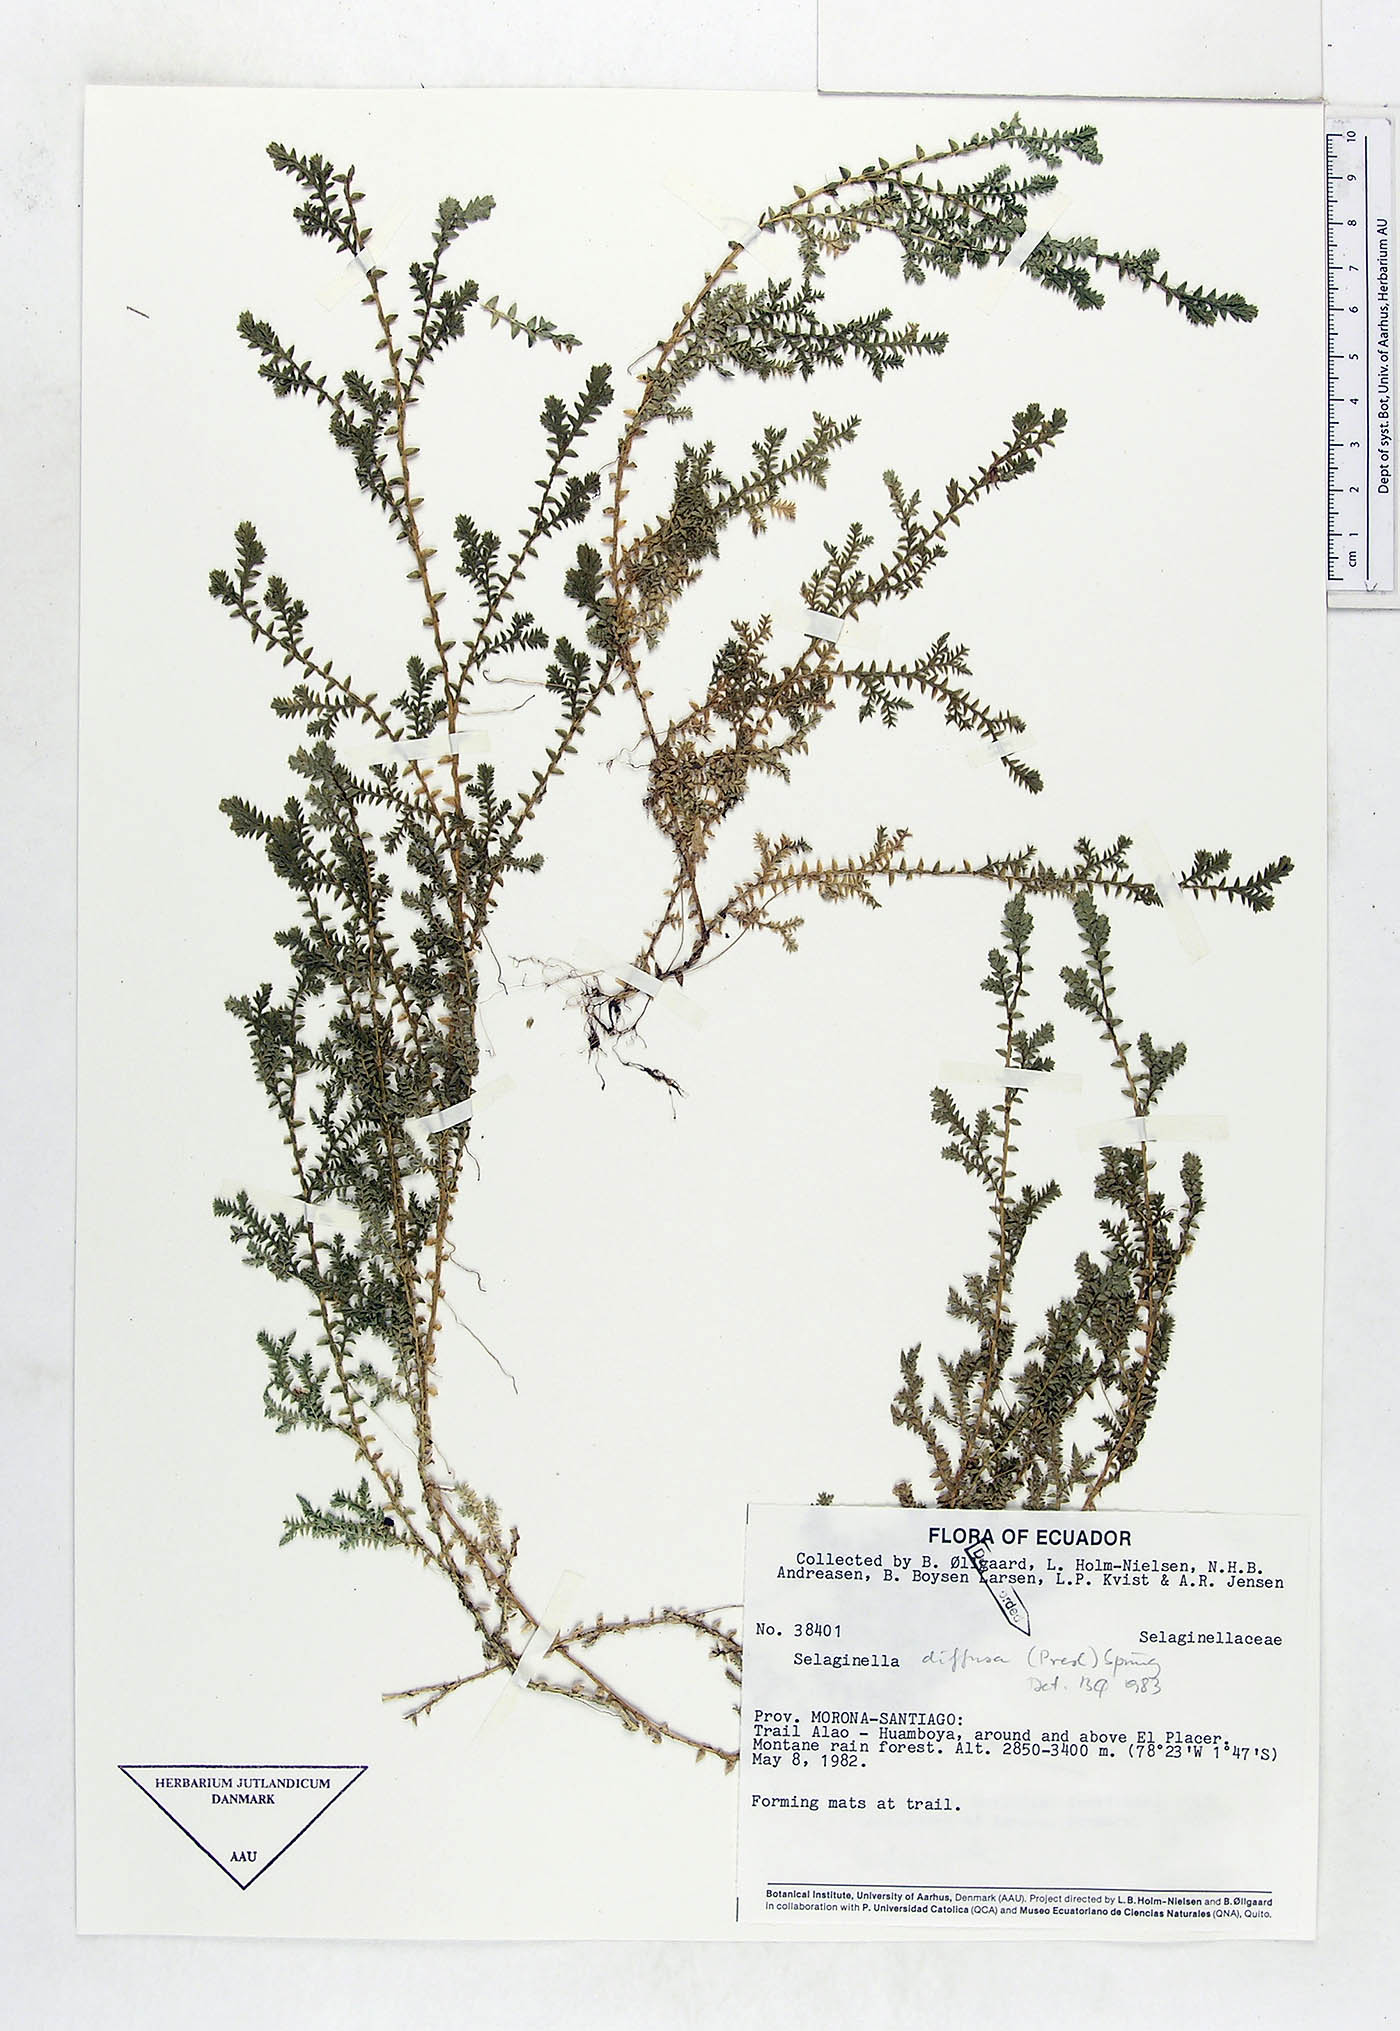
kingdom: Plantae
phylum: Tracheophyta
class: Lycopodiopsida
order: Selaginellales
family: Selaginellaceae
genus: Selaginella
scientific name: Selaginella diffusa
